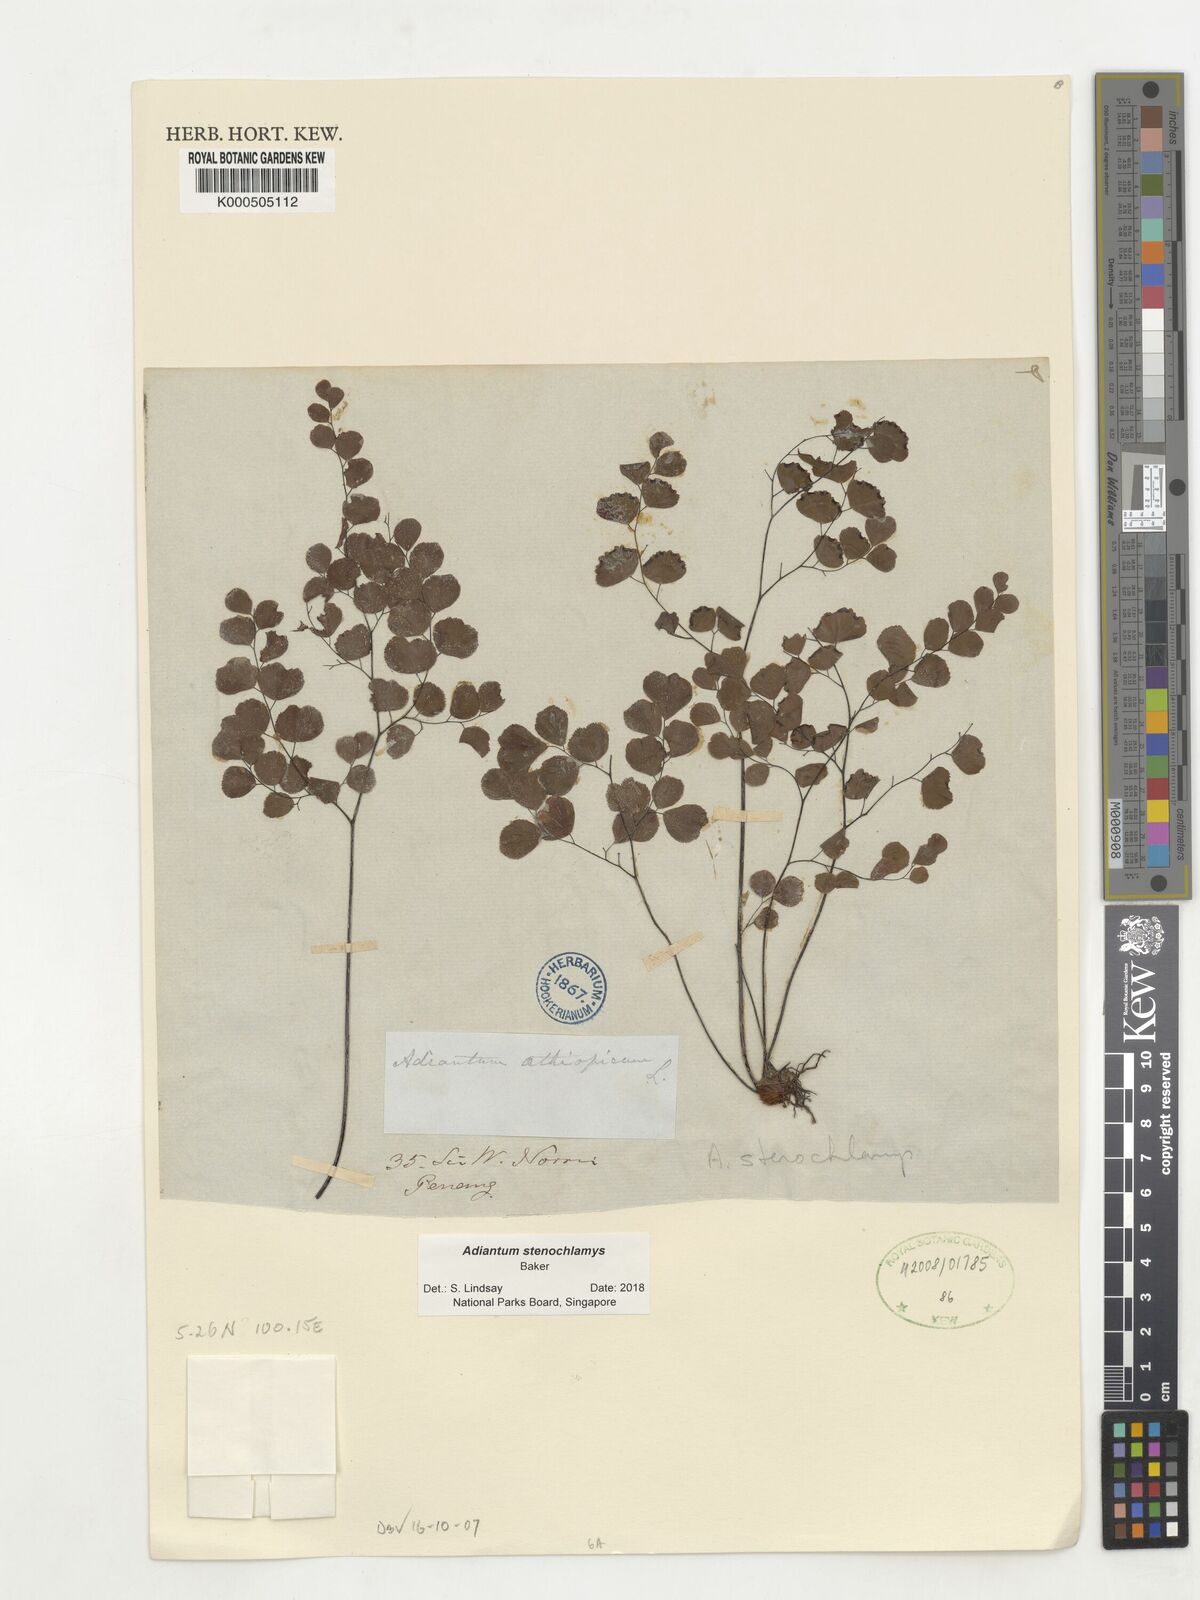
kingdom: Plantae
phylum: Tracheophyta
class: Polypodiopsida
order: Polypodiales
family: Pteridaceae
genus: Adiantum
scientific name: Adiantum stenochlamys
